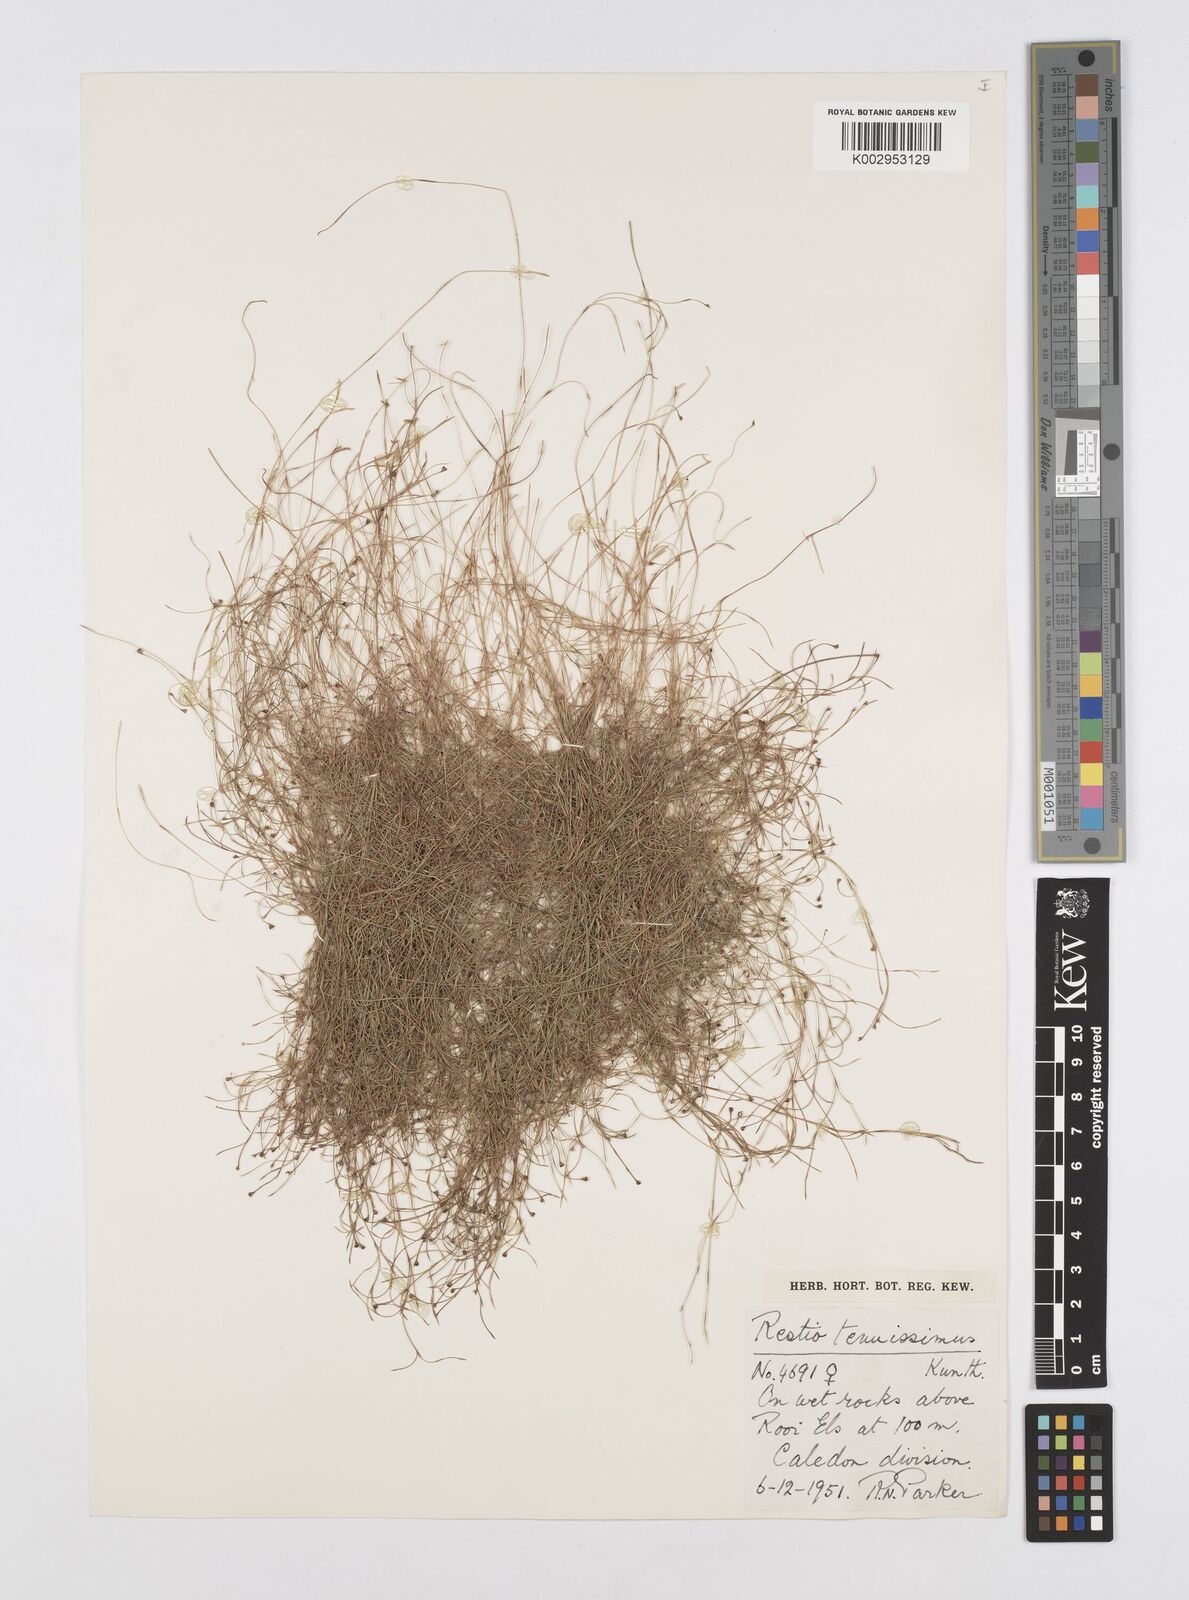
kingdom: Plantae
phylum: Tracheophyta
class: Liliopsida
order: Poales
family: Restionaceae
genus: Restio
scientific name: Restio tenuissimus
